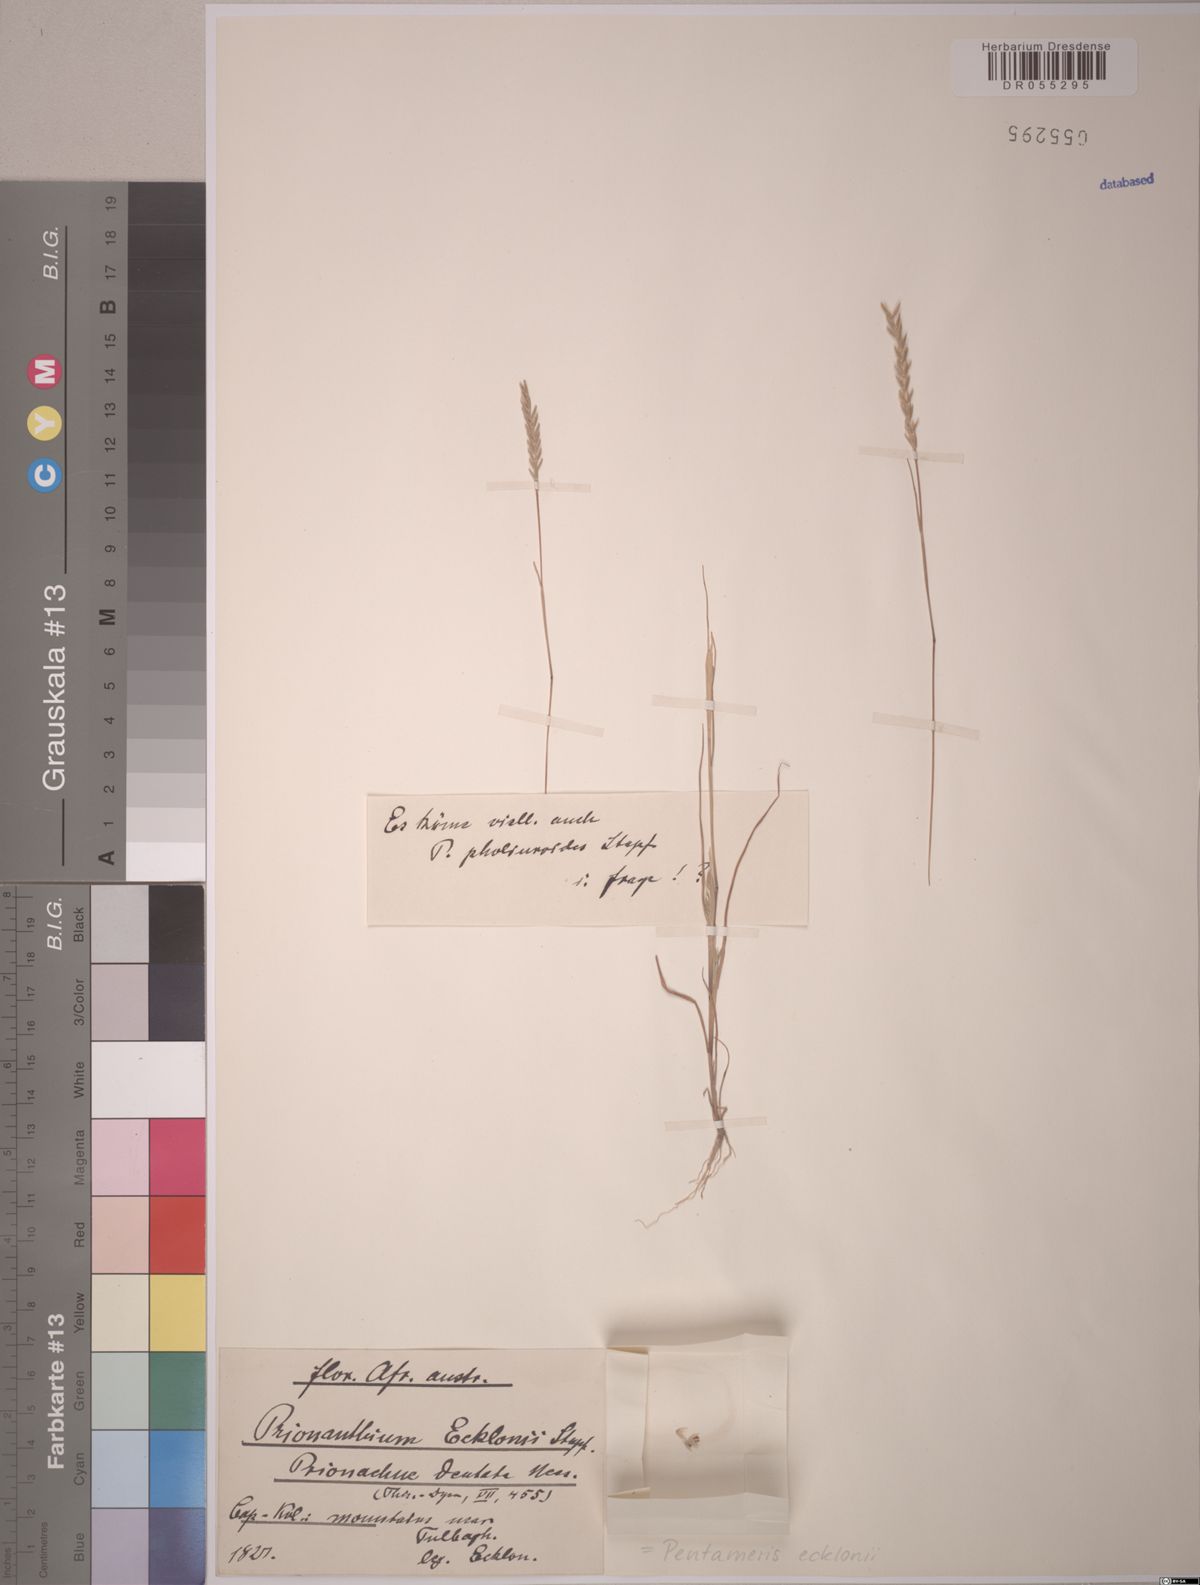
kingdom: Plantae
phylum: Tracheophyta
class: Liliopsida
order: Poales
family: Poaceae
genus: Pentameris
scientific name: Pentameris ecklonii
